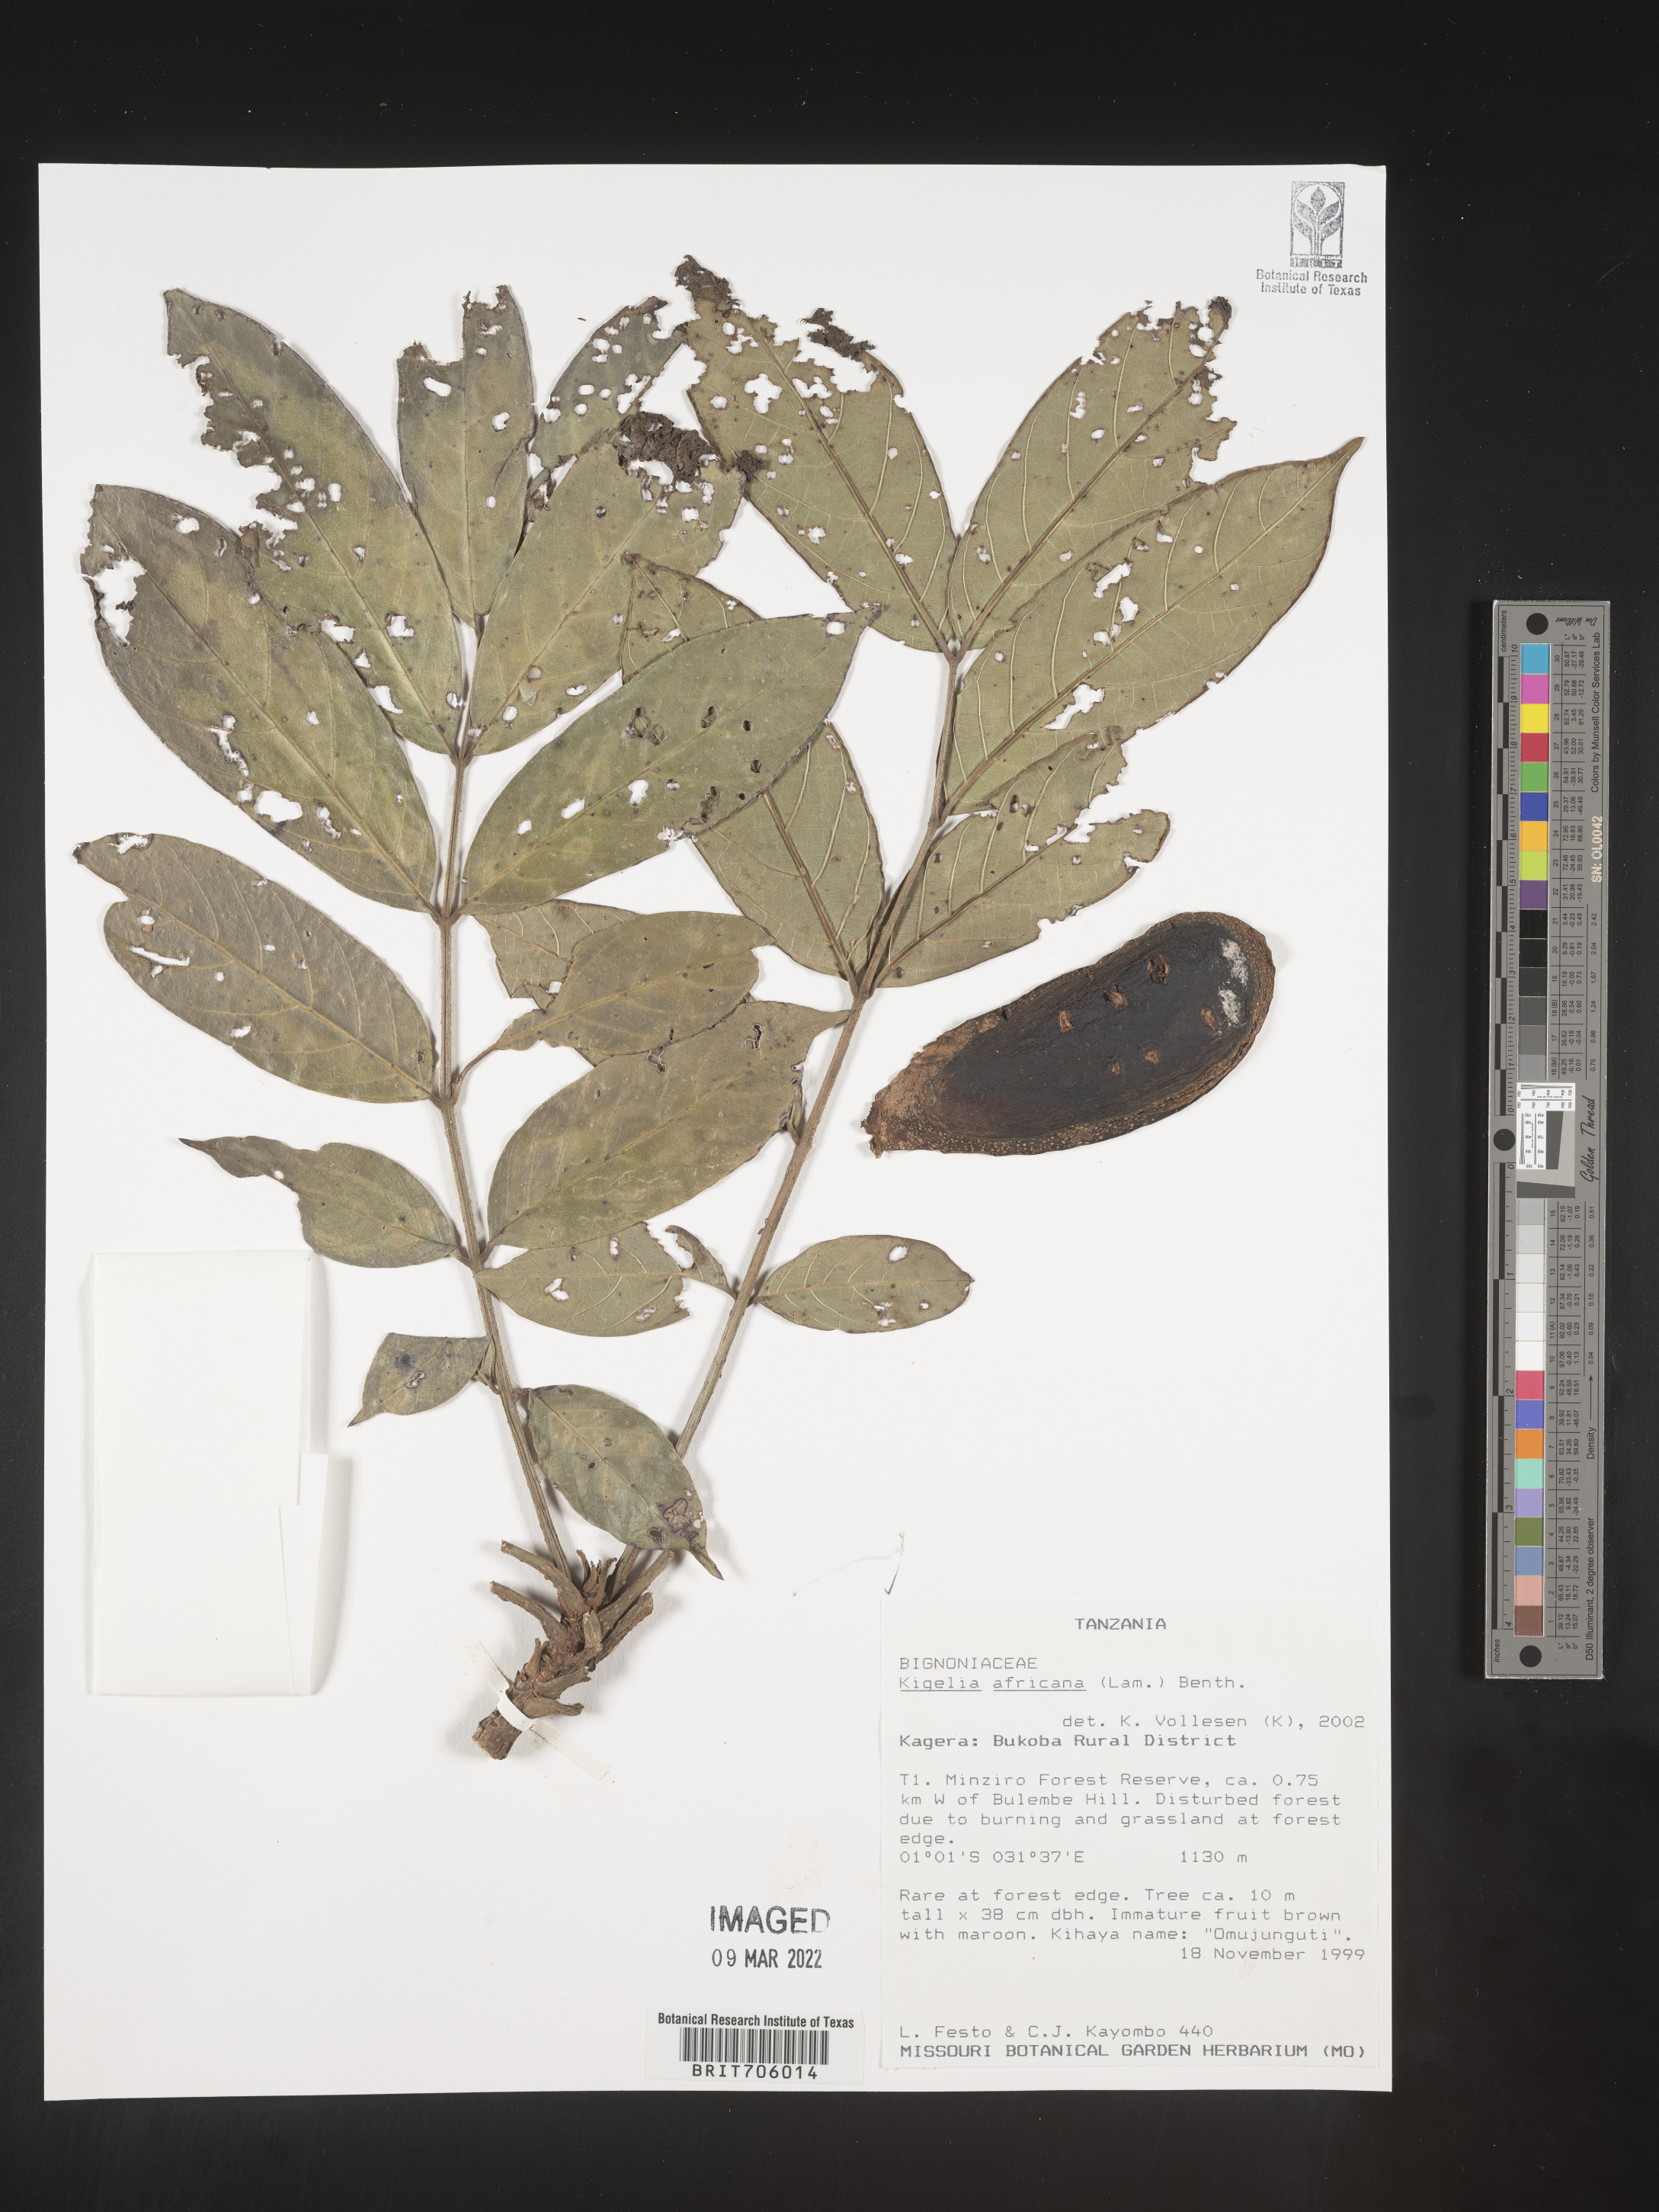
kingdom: Plantae
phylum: Tracheophyta
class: Magnoliopsida
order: Lamiales
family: Bignoniaceae
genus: Kigelia
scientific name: Kigelia
